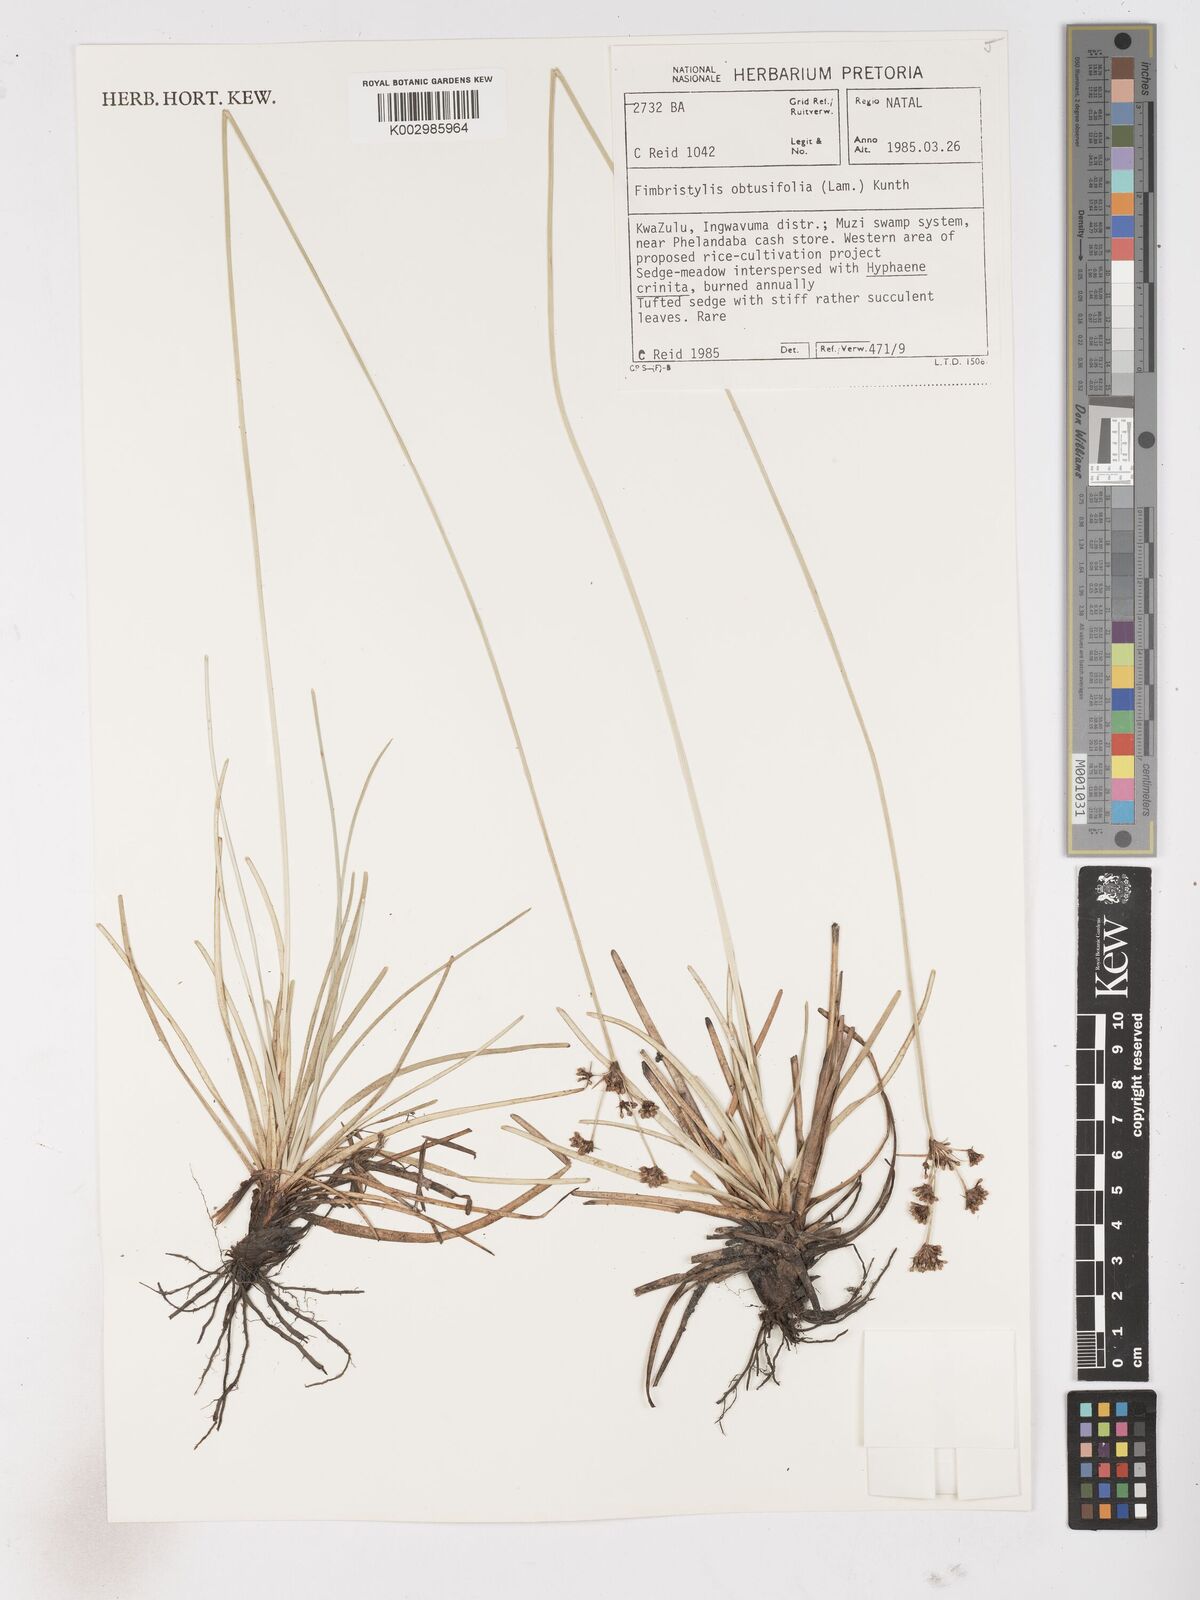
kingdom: Plantae
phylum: Tracheophyta
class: Liliopsida
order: Poales
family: Cyperaceae
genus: Fimbristylis
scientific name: Fimbristylis cymosa
